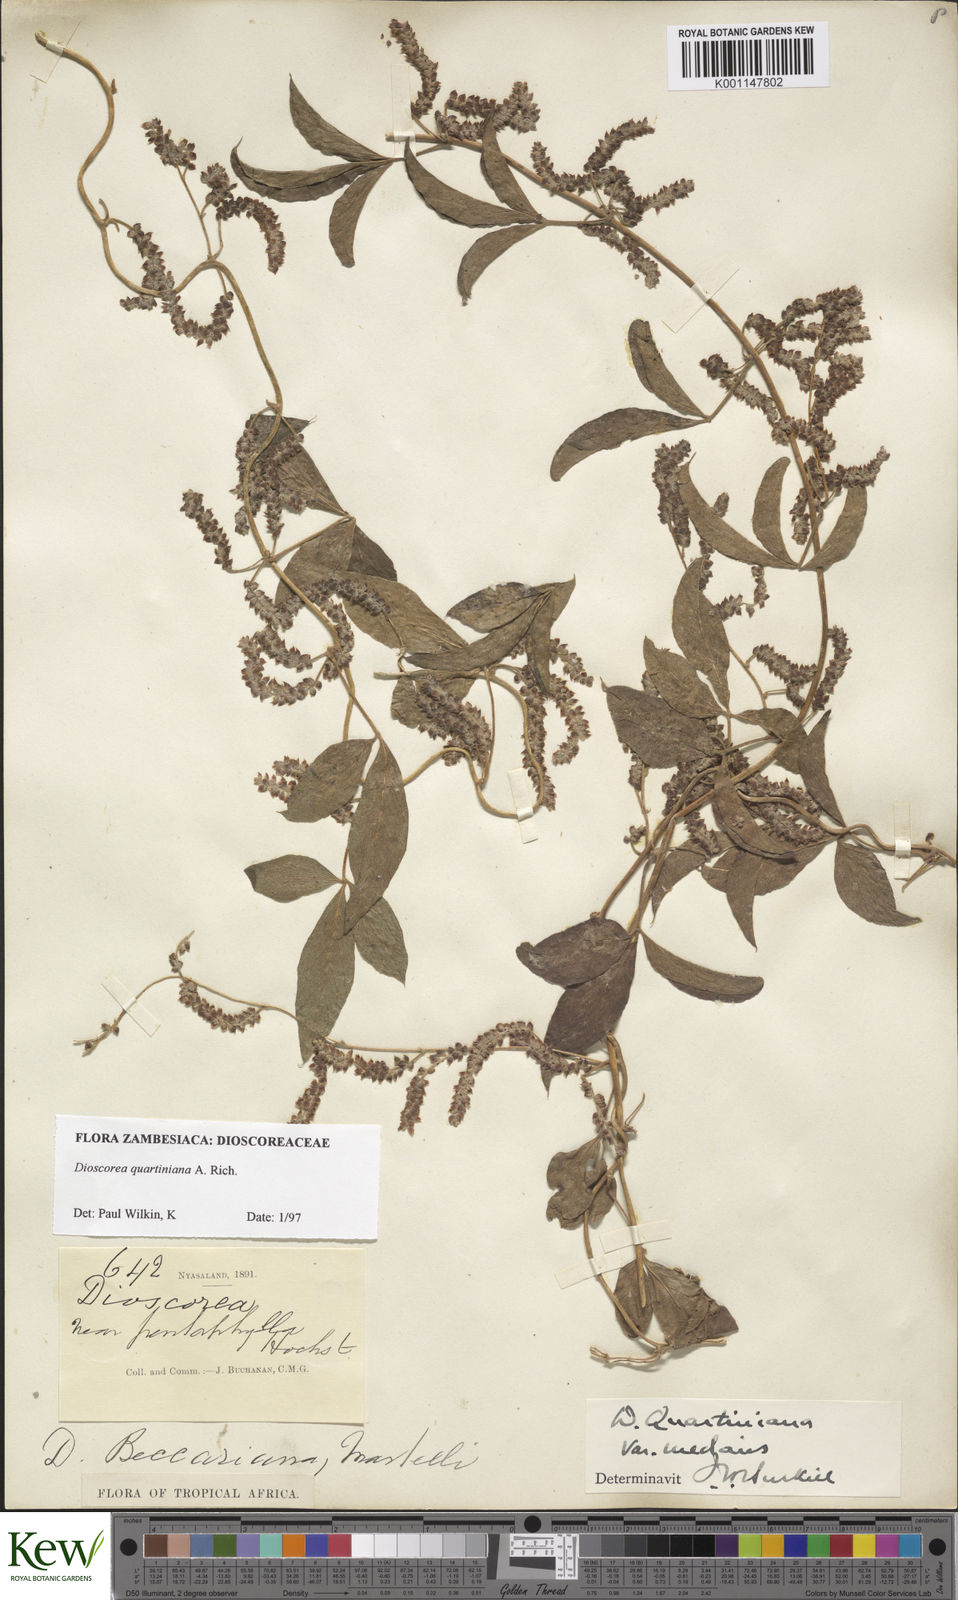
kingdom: Plantae
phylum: Tracheophyta
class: Liliopsida
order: Dioscoreales
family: Dioscoreaceae
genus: Dioscorea
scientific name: Dioscorea quartiniana
